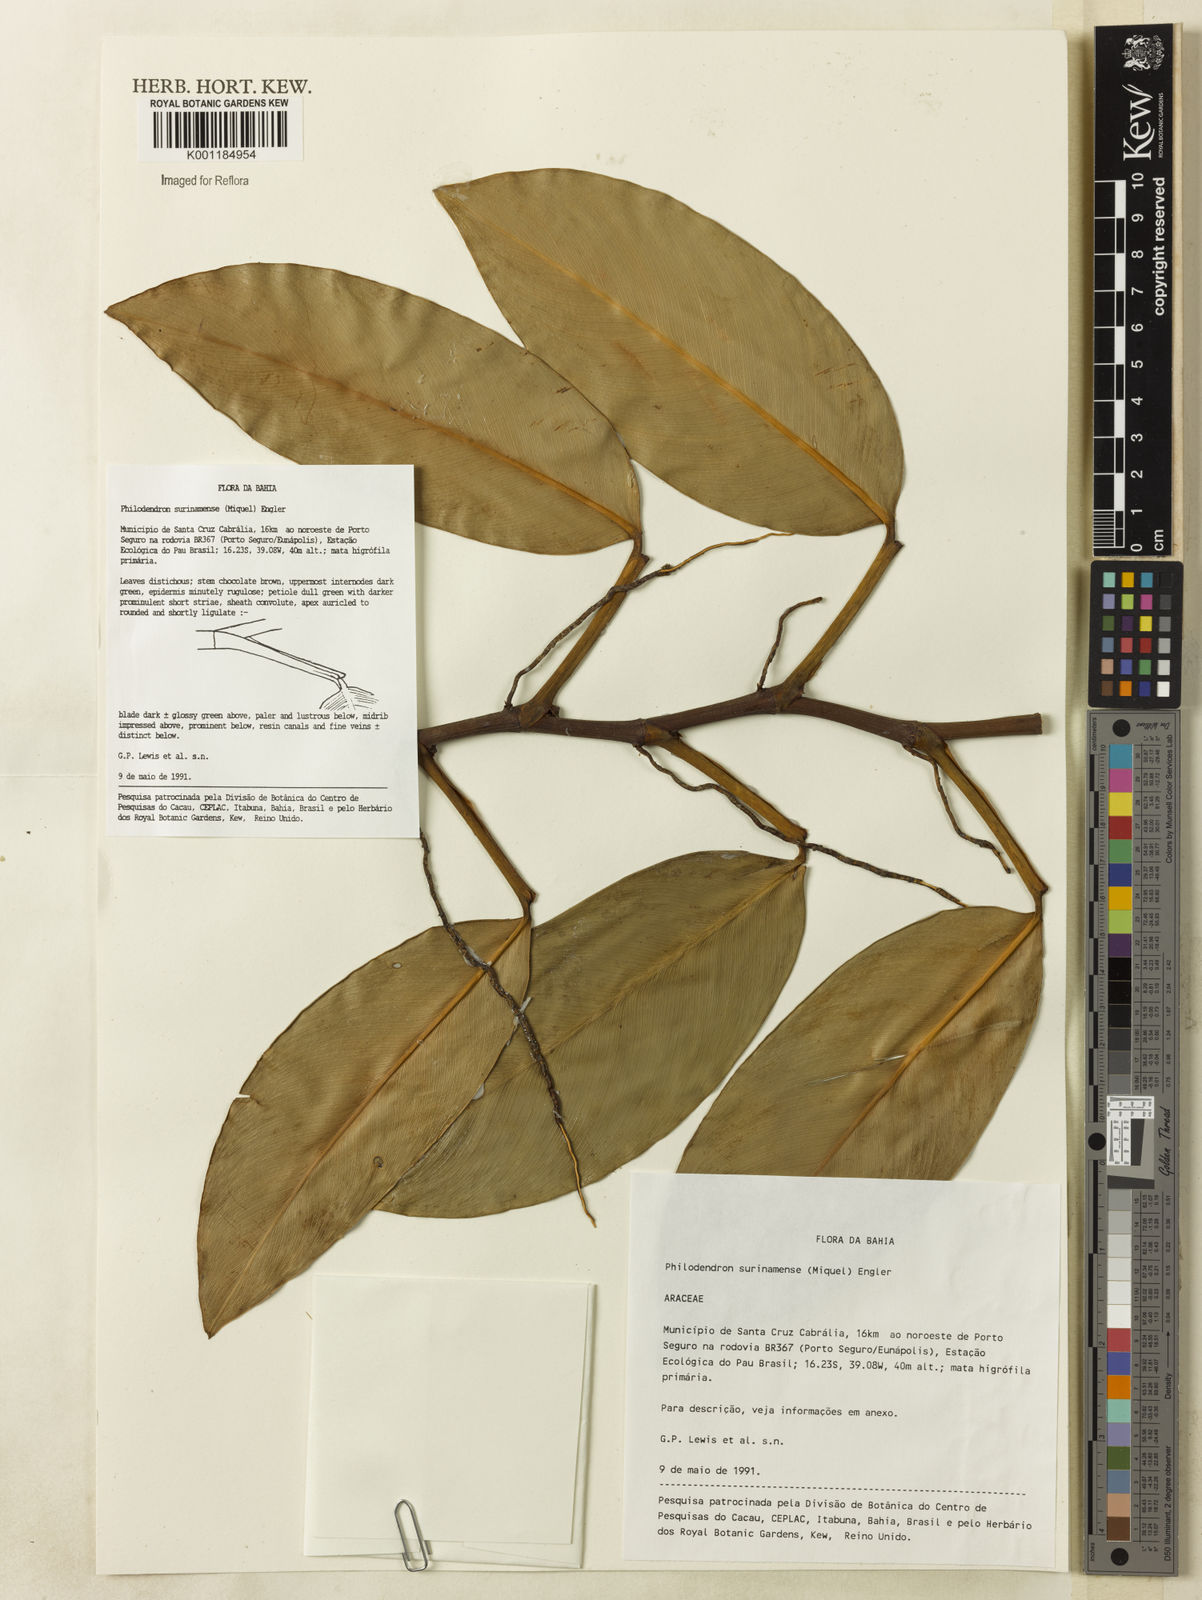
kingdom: Plantae
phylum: Tracheophyta
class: Liliopsida
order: Alismatales
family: Araceae
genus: Philodendron
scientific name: Philodendron surinamense
